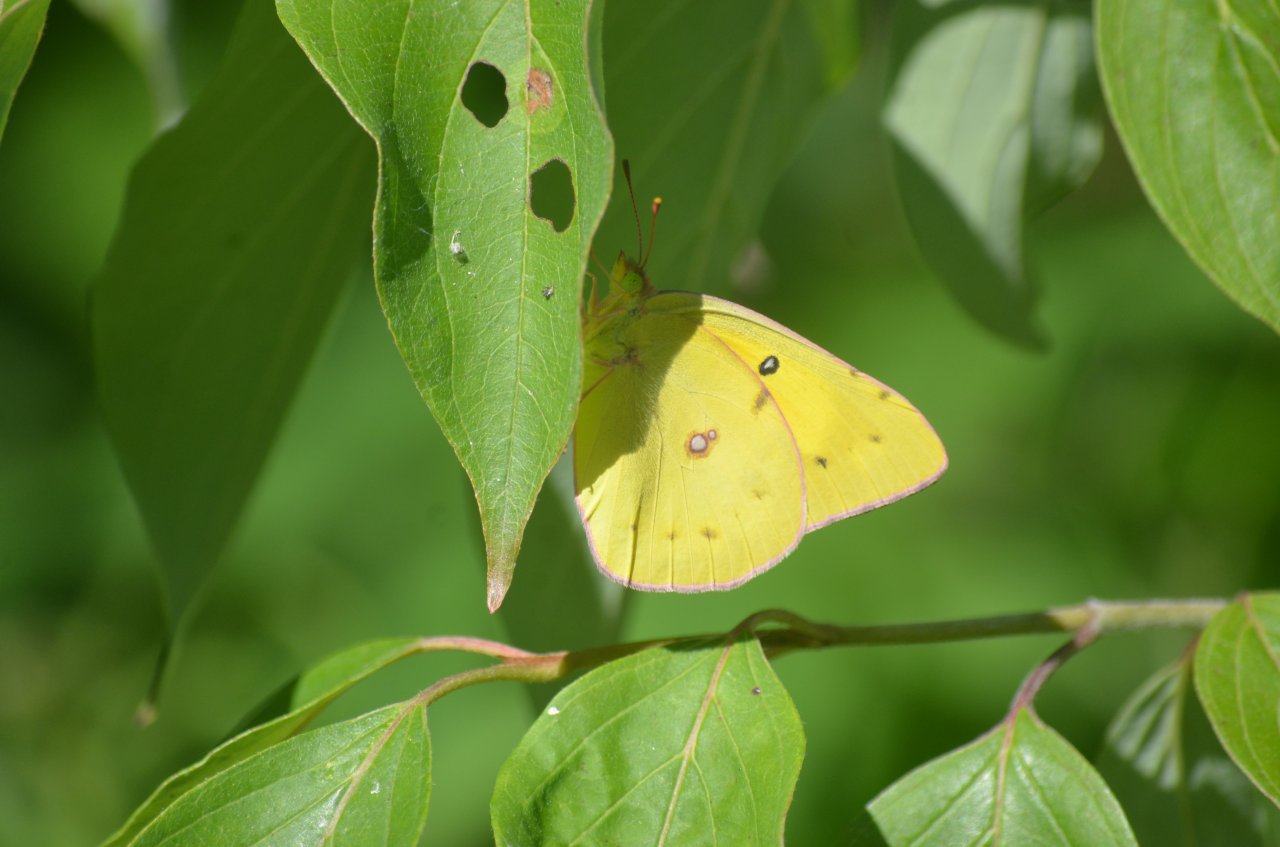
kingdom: Animalia
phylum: Arthropoda
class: Insecta
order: Lepidoptera
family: Pieridae
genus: Colias
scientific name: Colias eurytheme
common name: Orange Sulphur
